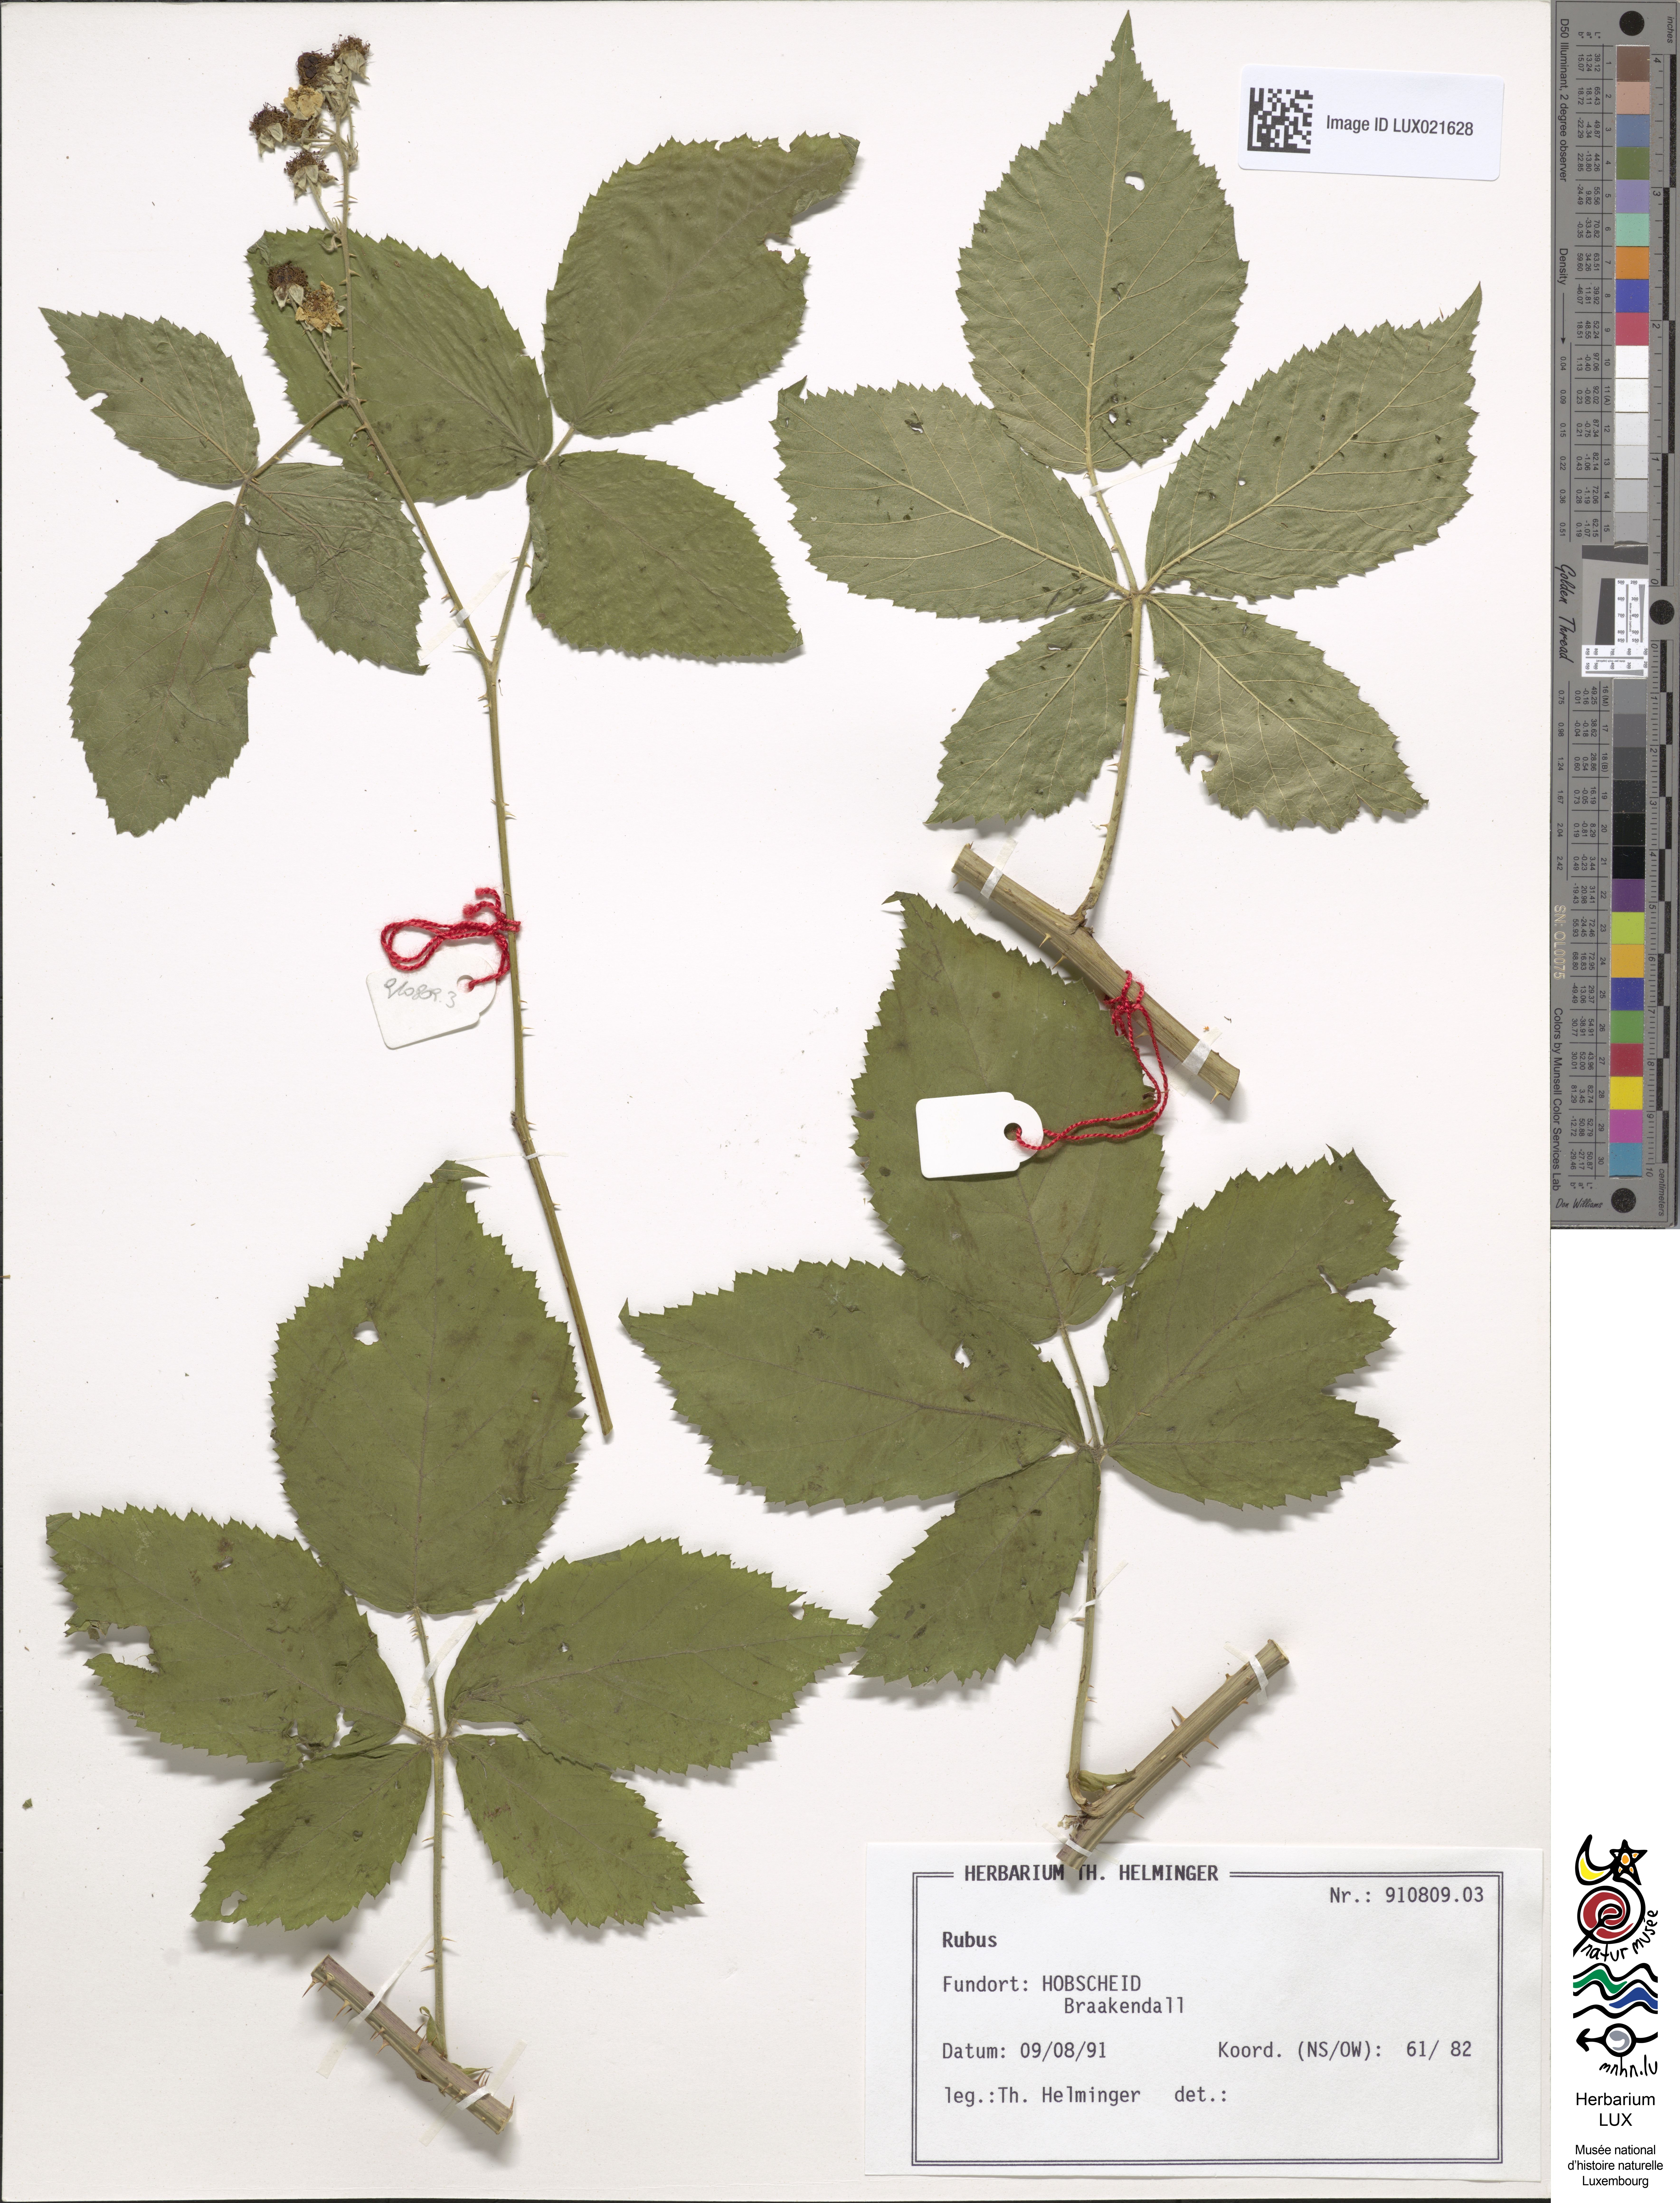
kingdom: Plantae
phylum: Tracheophyta
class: Magnoliopsida
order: Rosales
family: Rosaceae
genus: Rubus
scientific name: Rubus
